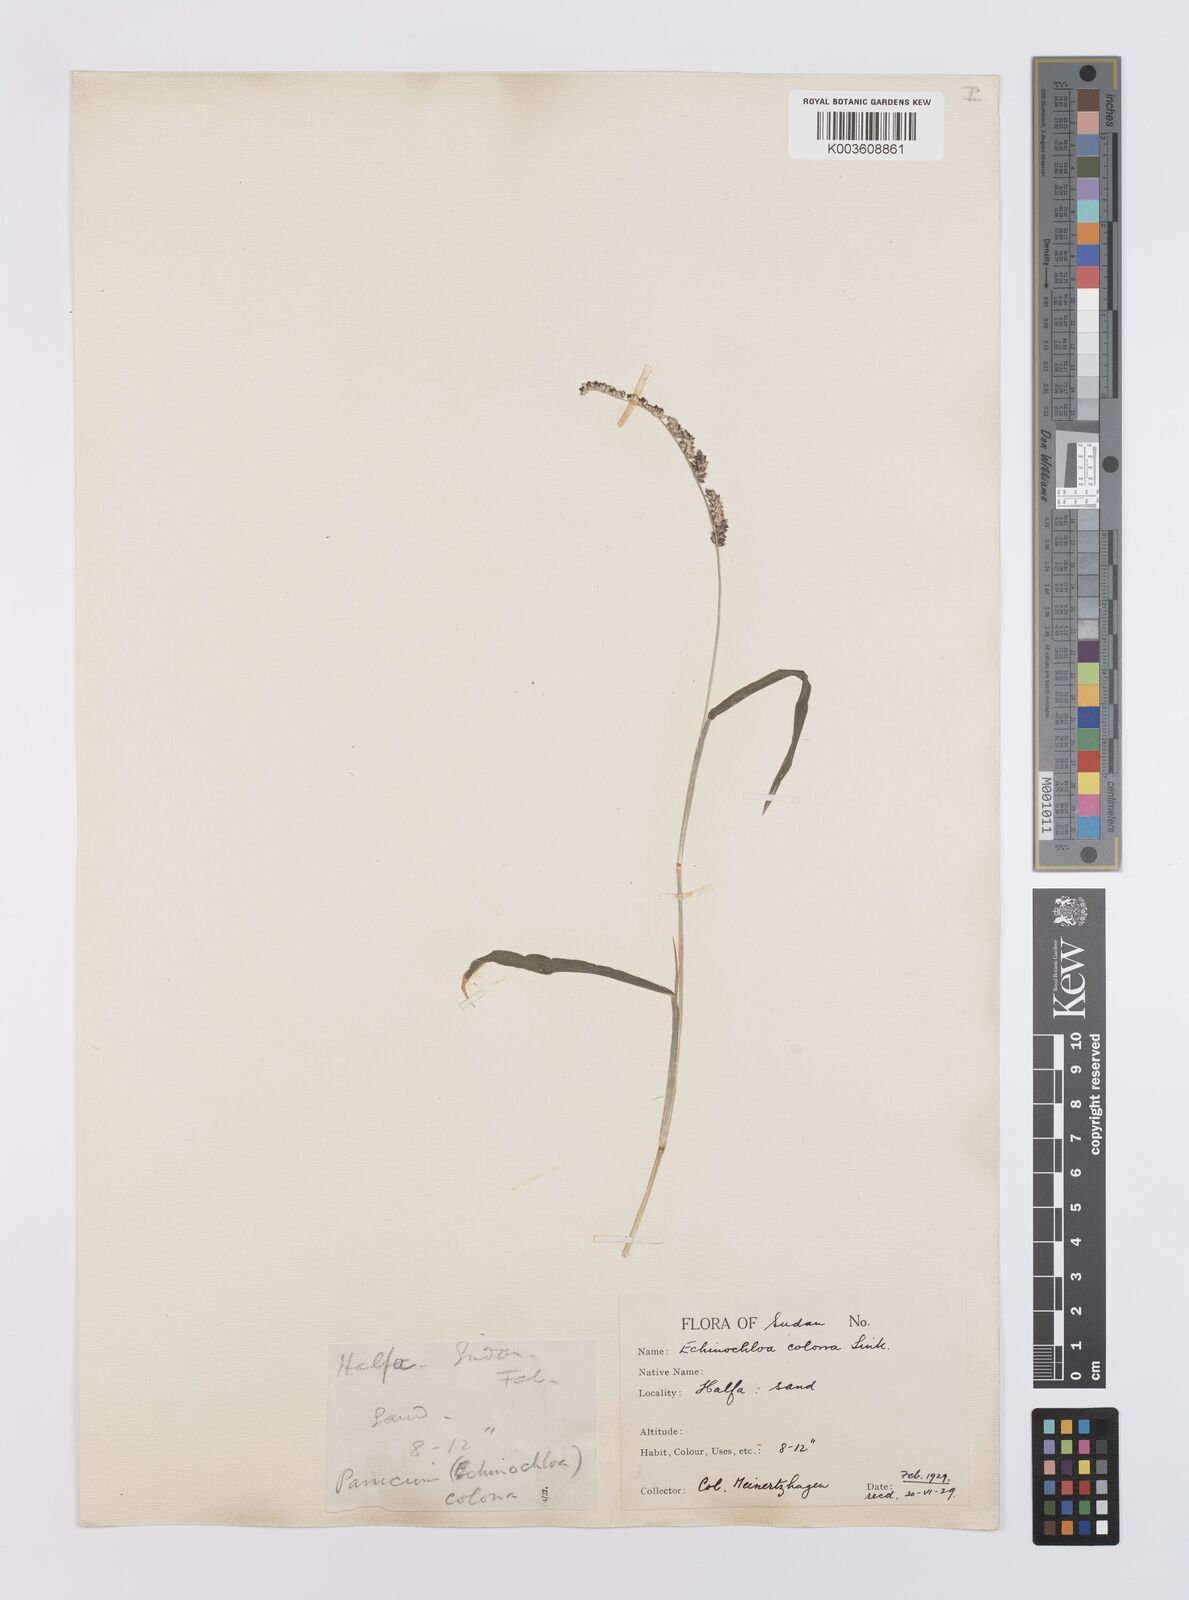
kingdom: Plantae
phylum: Tracheophyta
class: Liliopsida
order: Poales
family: Poaceae
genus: Echinochloa
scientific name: Echinochloa colonum
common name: Jungle rice
